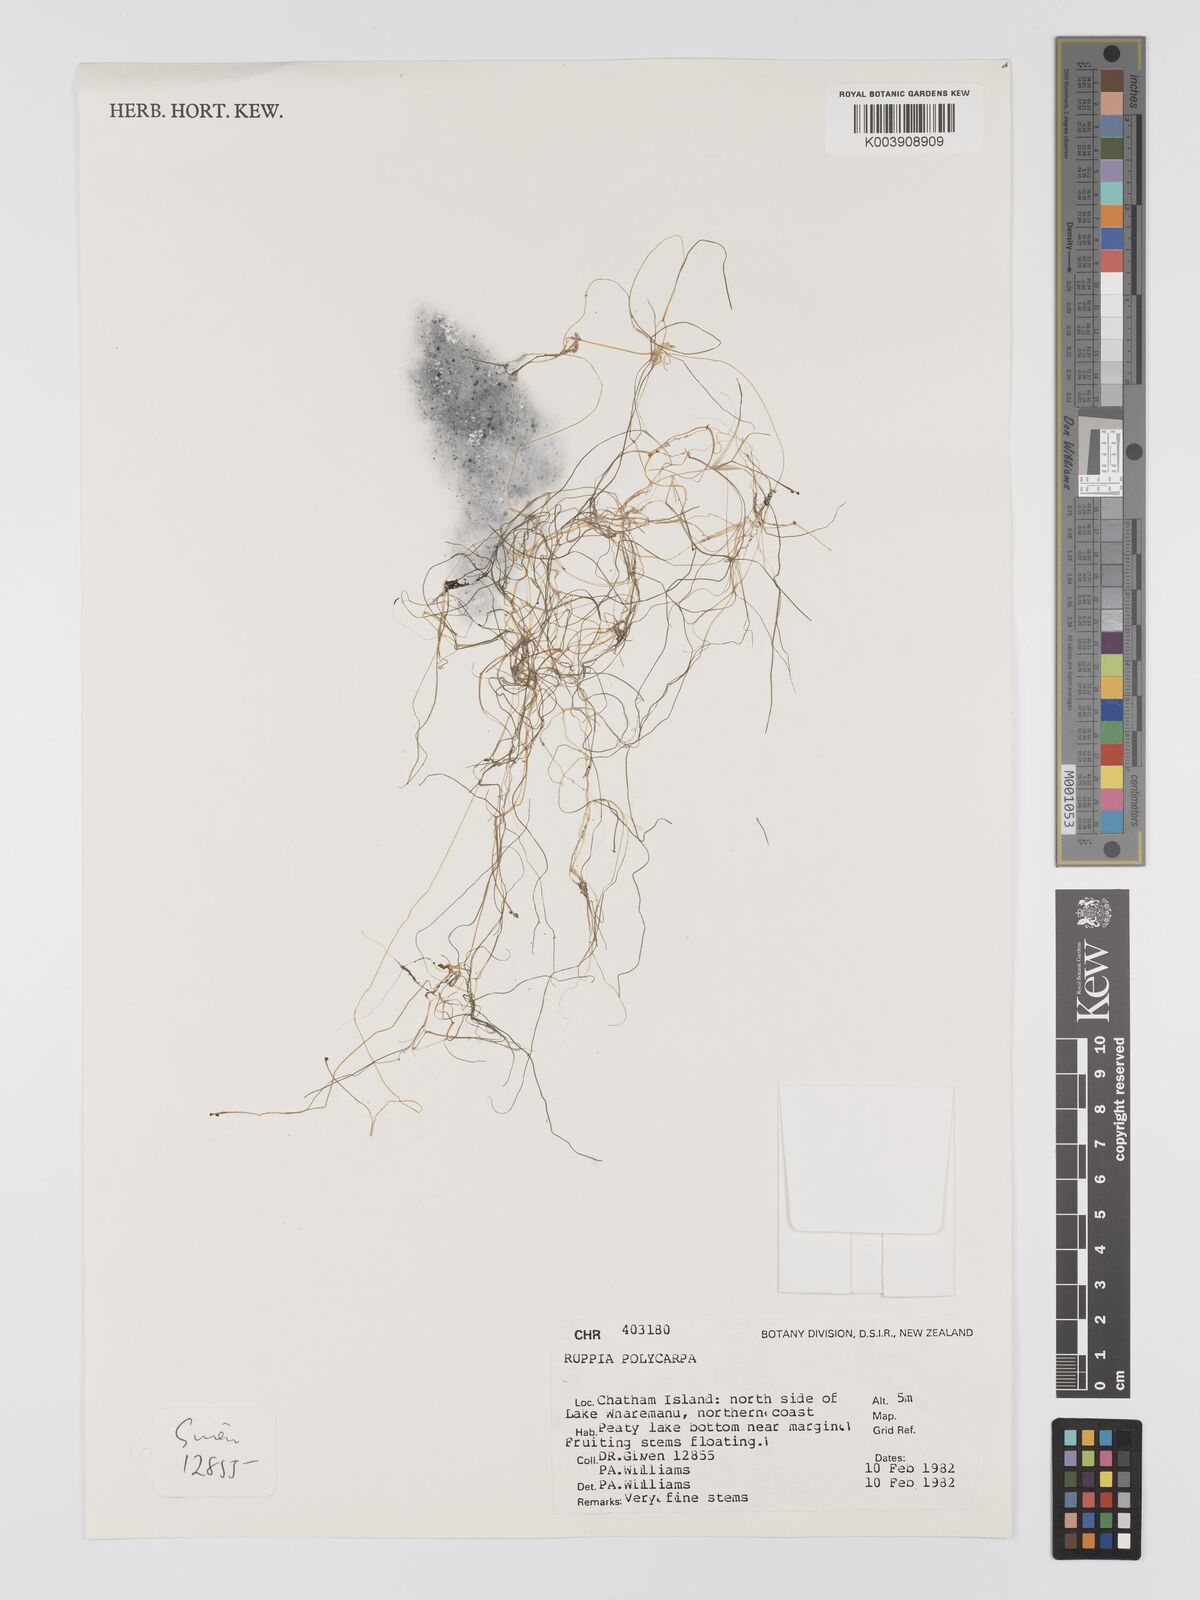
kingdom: Plantae
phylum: Tracheophyta
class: Liliopsida
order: Alismatales
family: Ruppiaceae
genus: Ruppia
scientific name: Ruppia polycarpa
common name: Species code: rp
